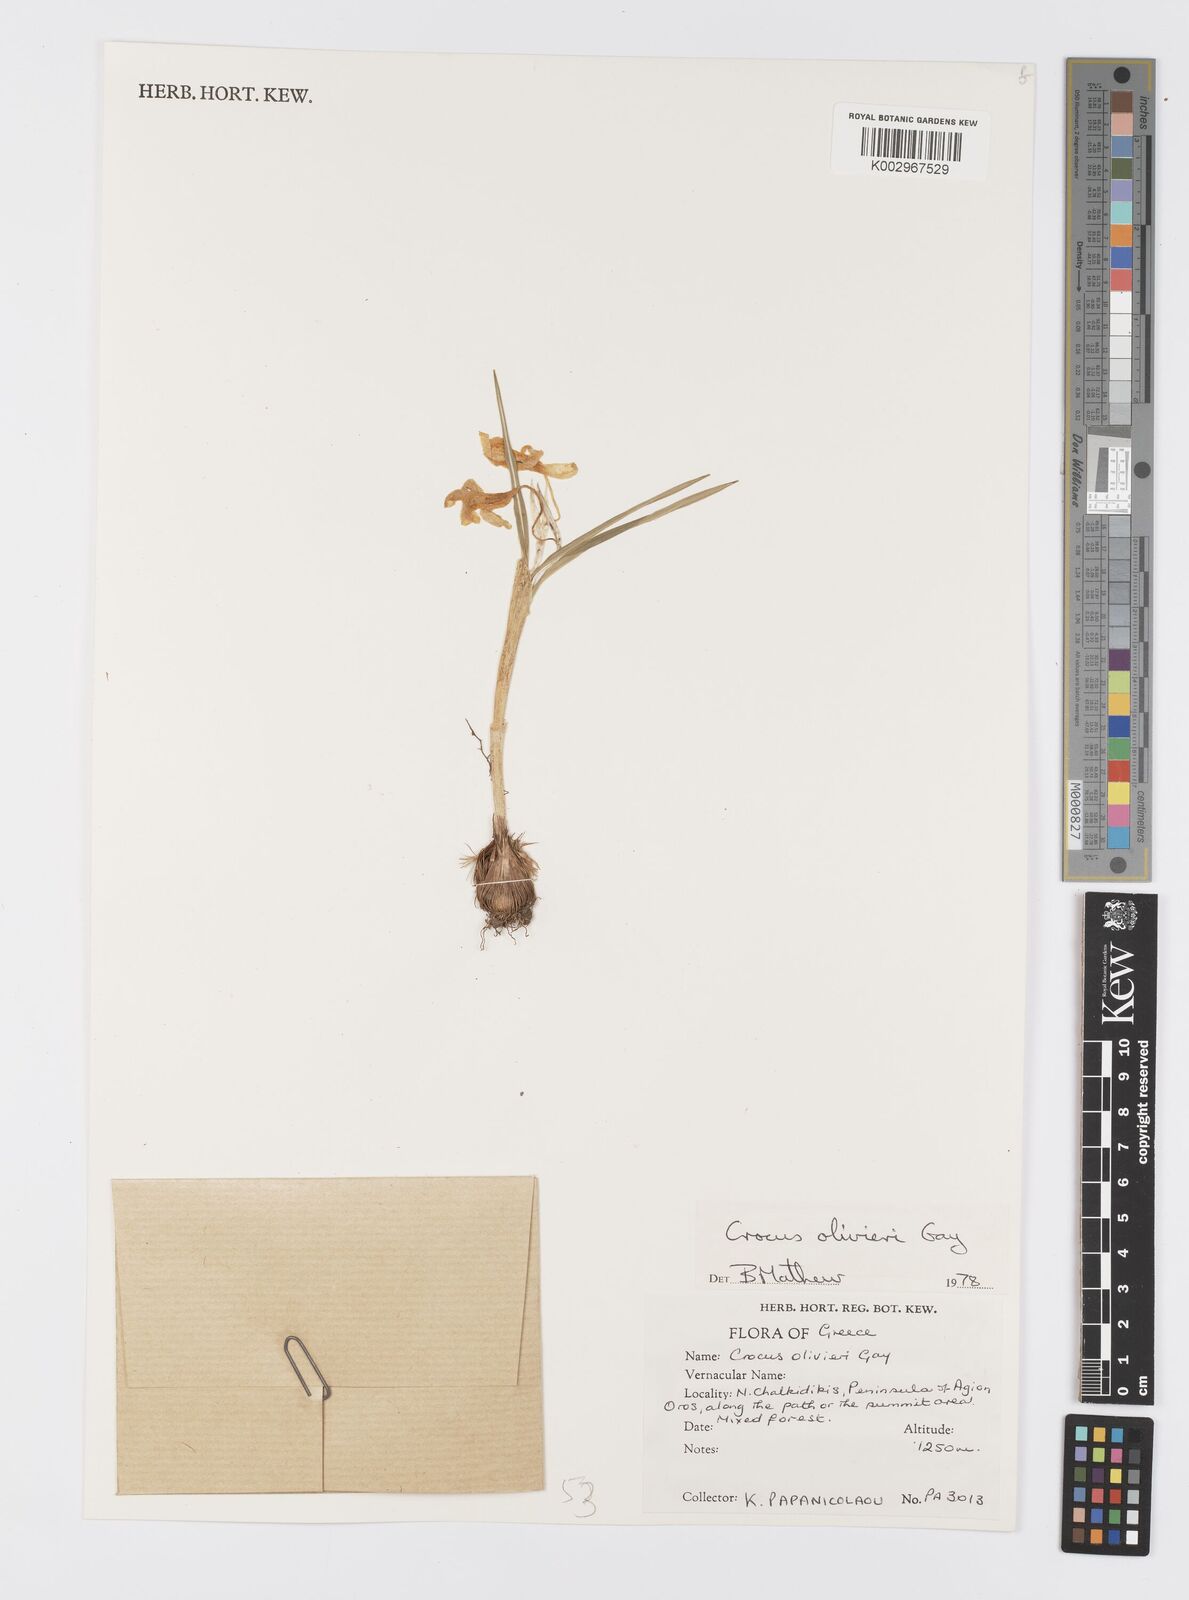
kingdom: Plantae
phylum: Tracheophyta
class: Liliopsida
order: Asparagales
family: Iridaceae
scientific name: Iridaceae
